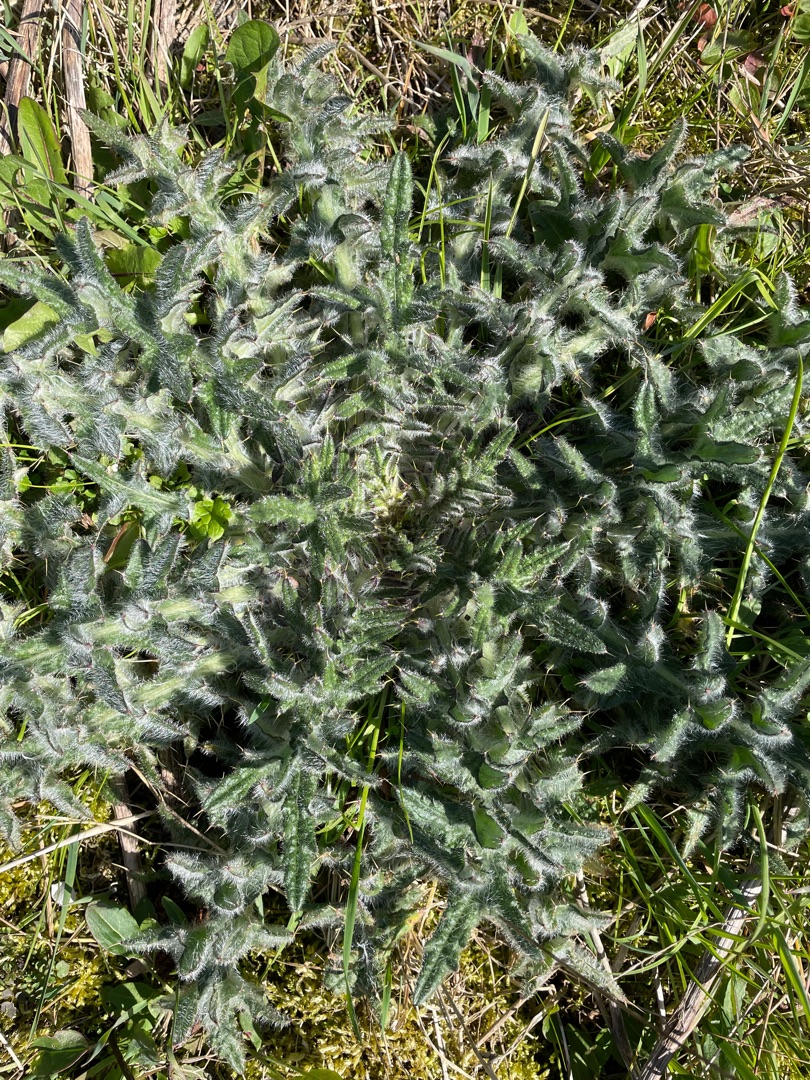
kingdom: Plantae
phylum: Tracheophyta
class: Magnoliopsida
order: Asterales
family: Asteraceae
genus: Cirsium
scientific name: Cirsium vulgare
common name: Horse-tidsel
